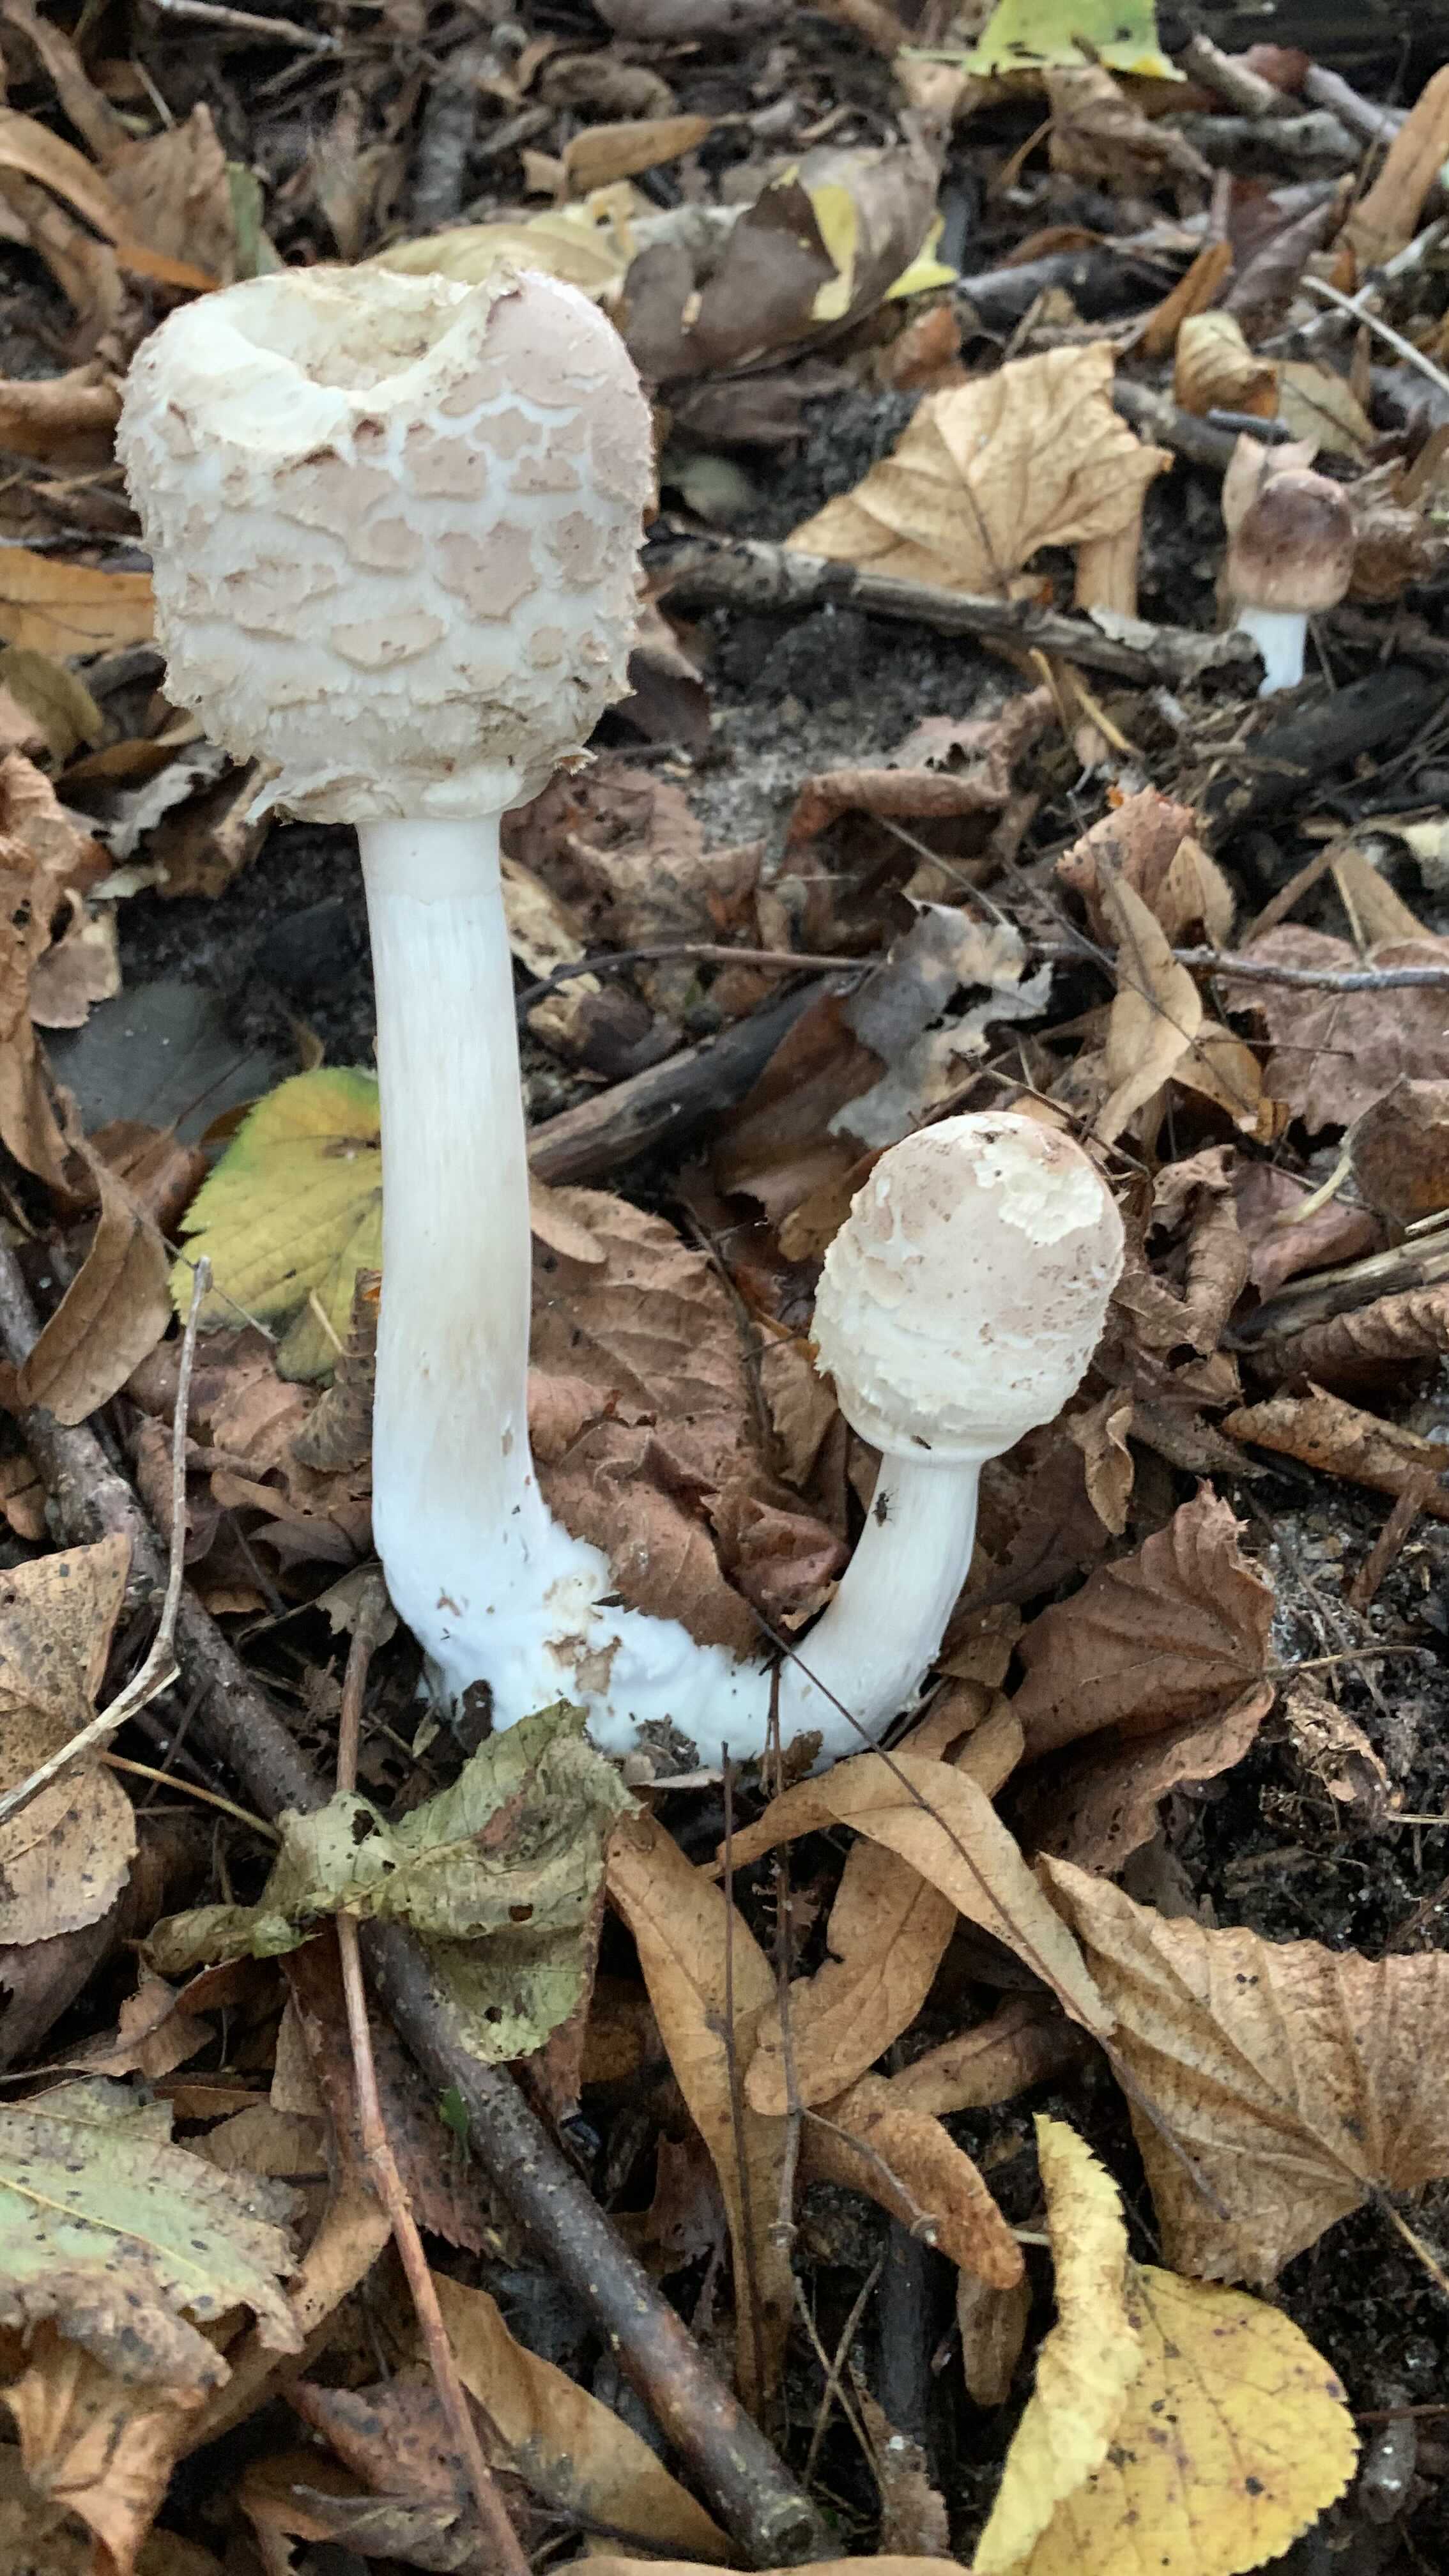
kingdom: Fungi
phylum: Basidiomycota
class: Agaricomycetes
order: Agaricales
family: Agaricaceae
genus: Chlorophyllum
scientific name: Chlorophyllum
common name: rabarberhat
